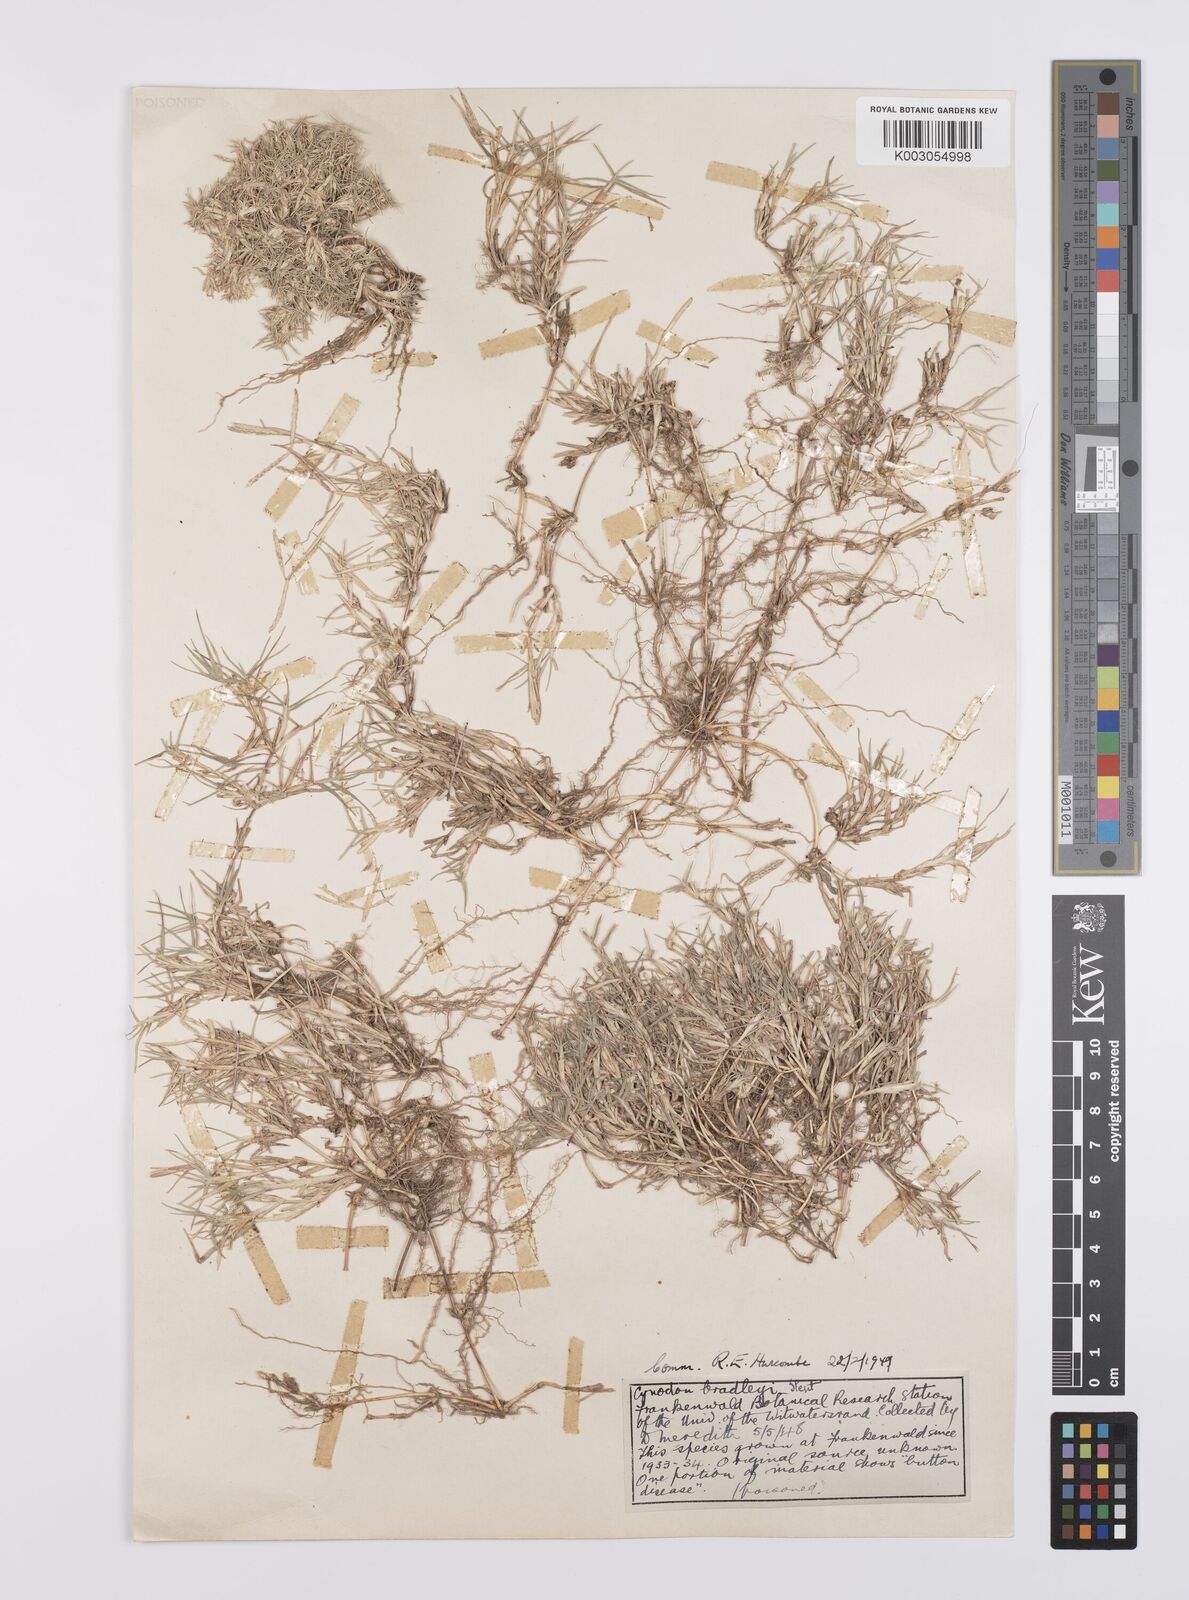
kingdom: Plantae
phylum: Tracheophyta
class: Liliopsida
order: Poales
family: Poaceae
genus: Cynodon
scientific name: Cynodon incompletus
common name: African bermuda-grass
